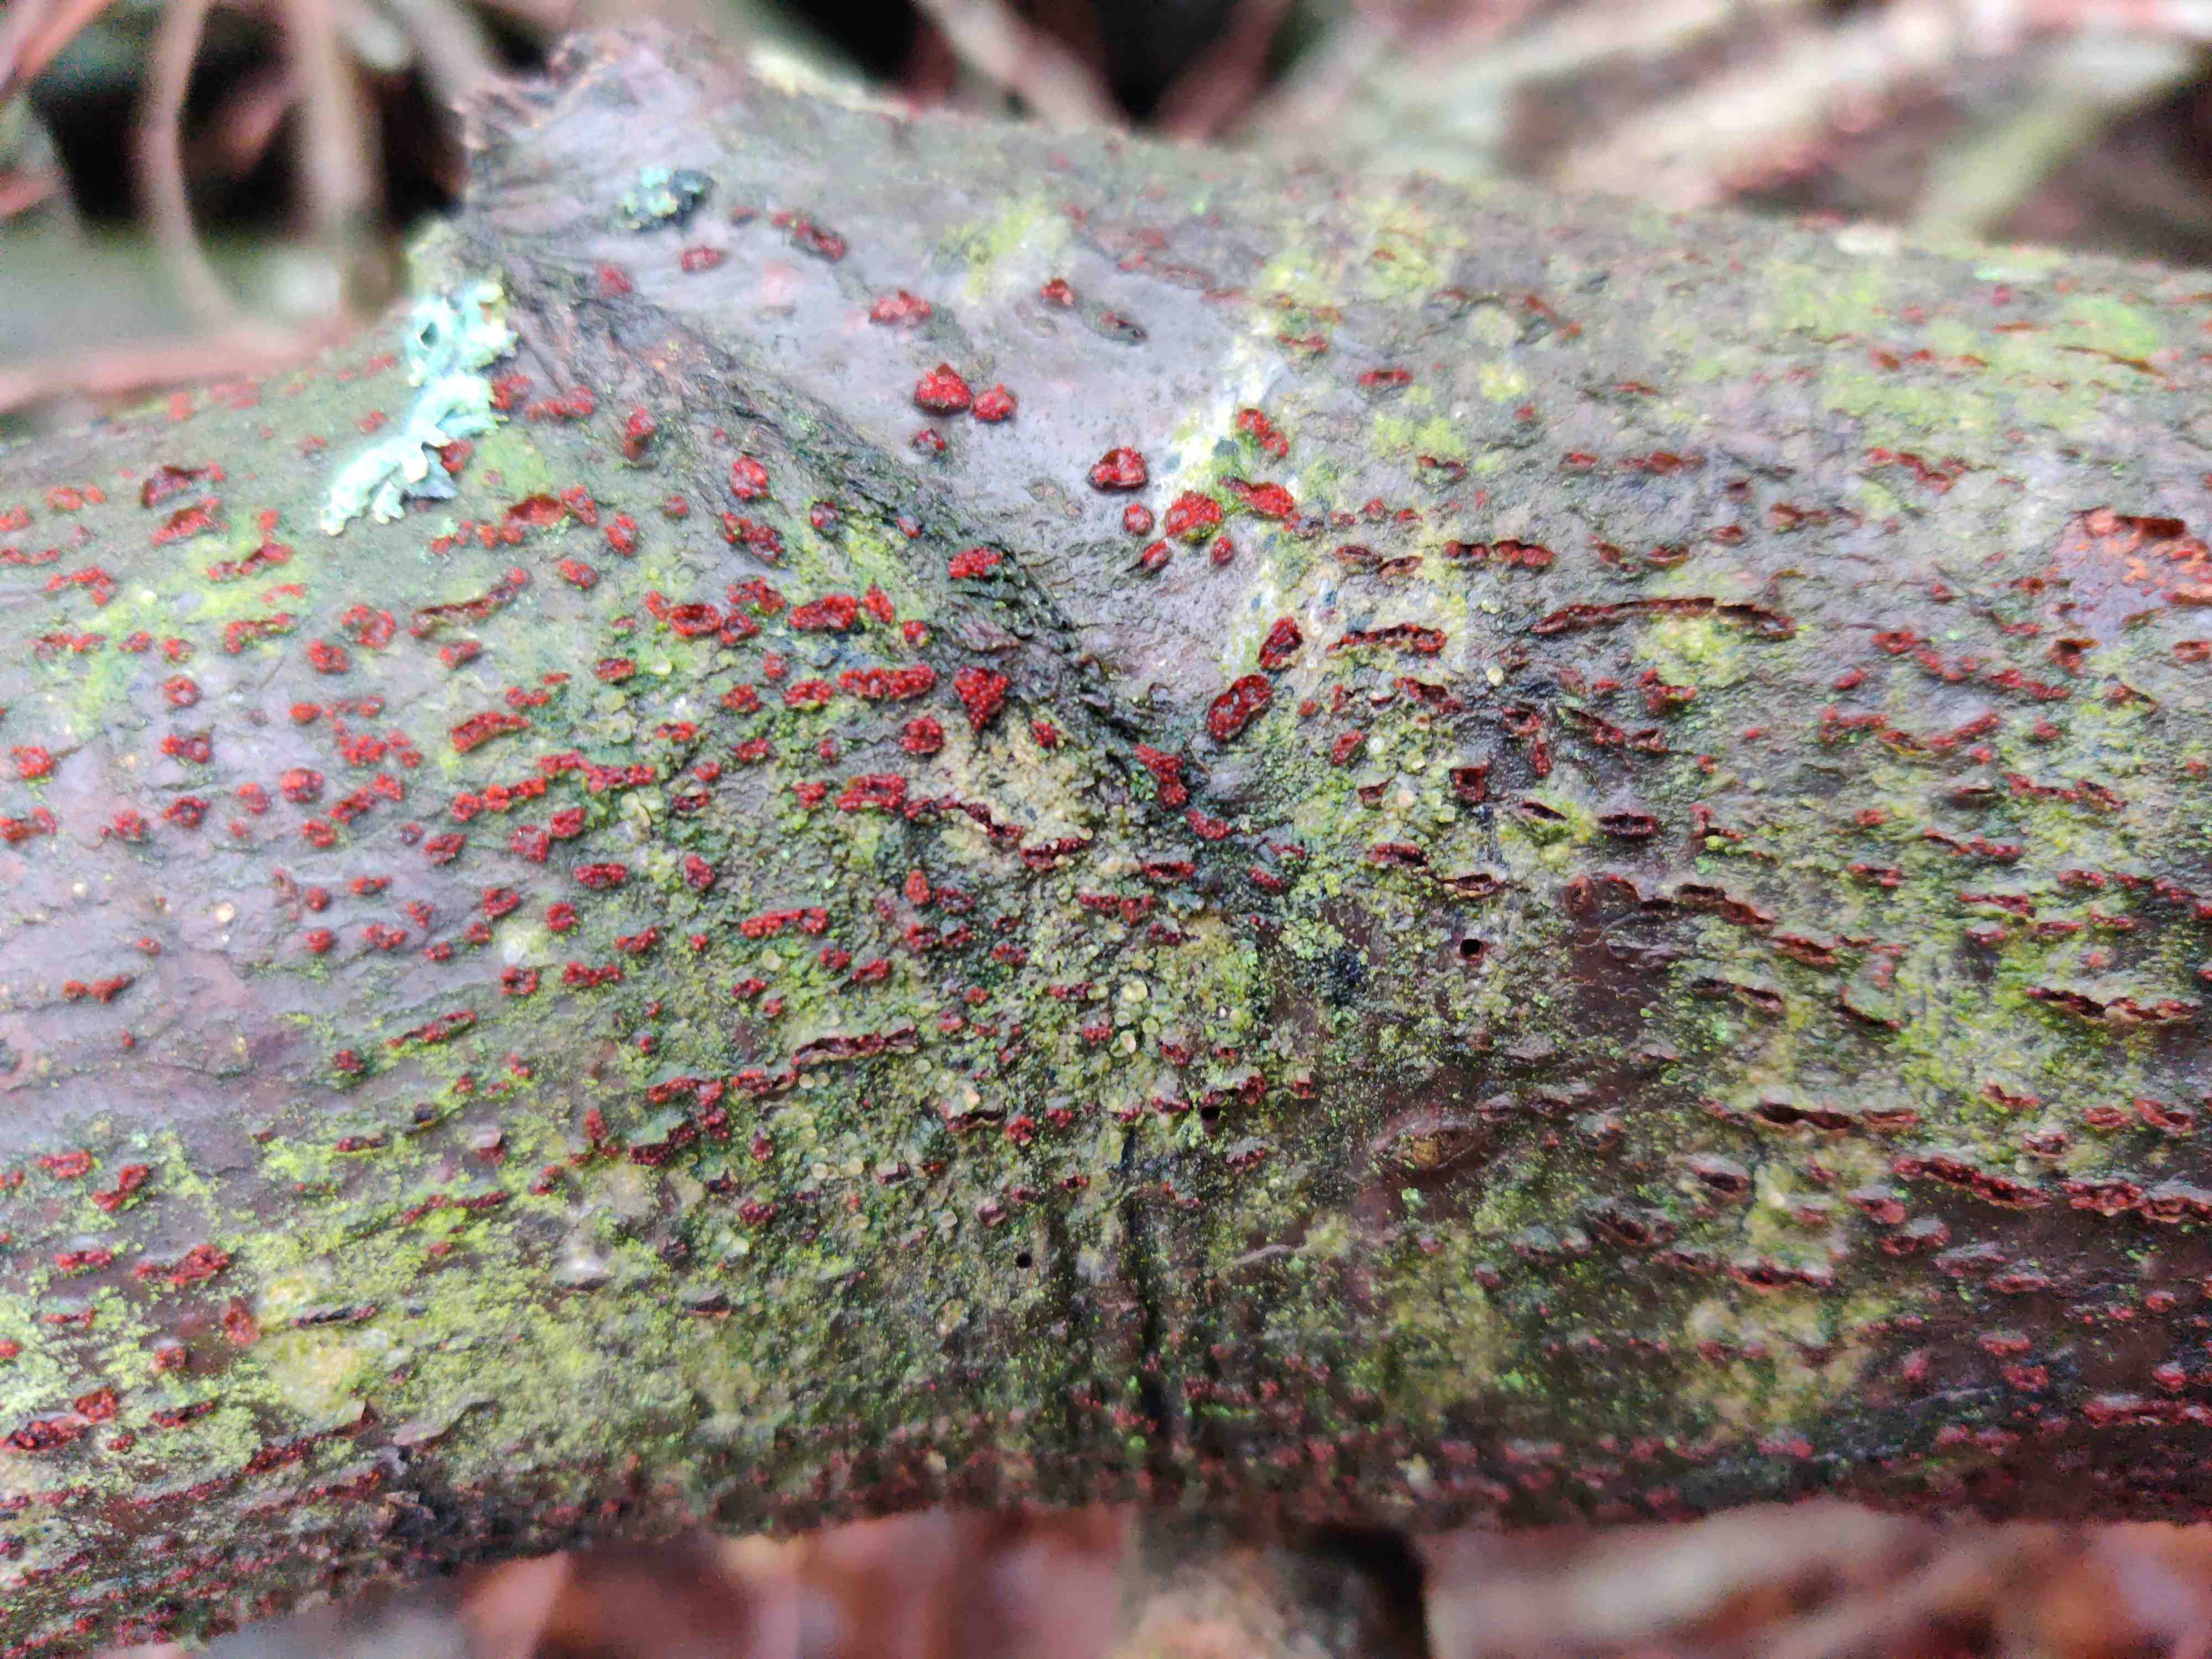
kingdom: Fungi
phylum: Ascomycota
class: Sordariomycetes
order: Hypocreales
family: Nectriaceae
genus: Neonectria
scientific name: Neonectria coccinea
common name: bøgebark-cinnobersvamp
